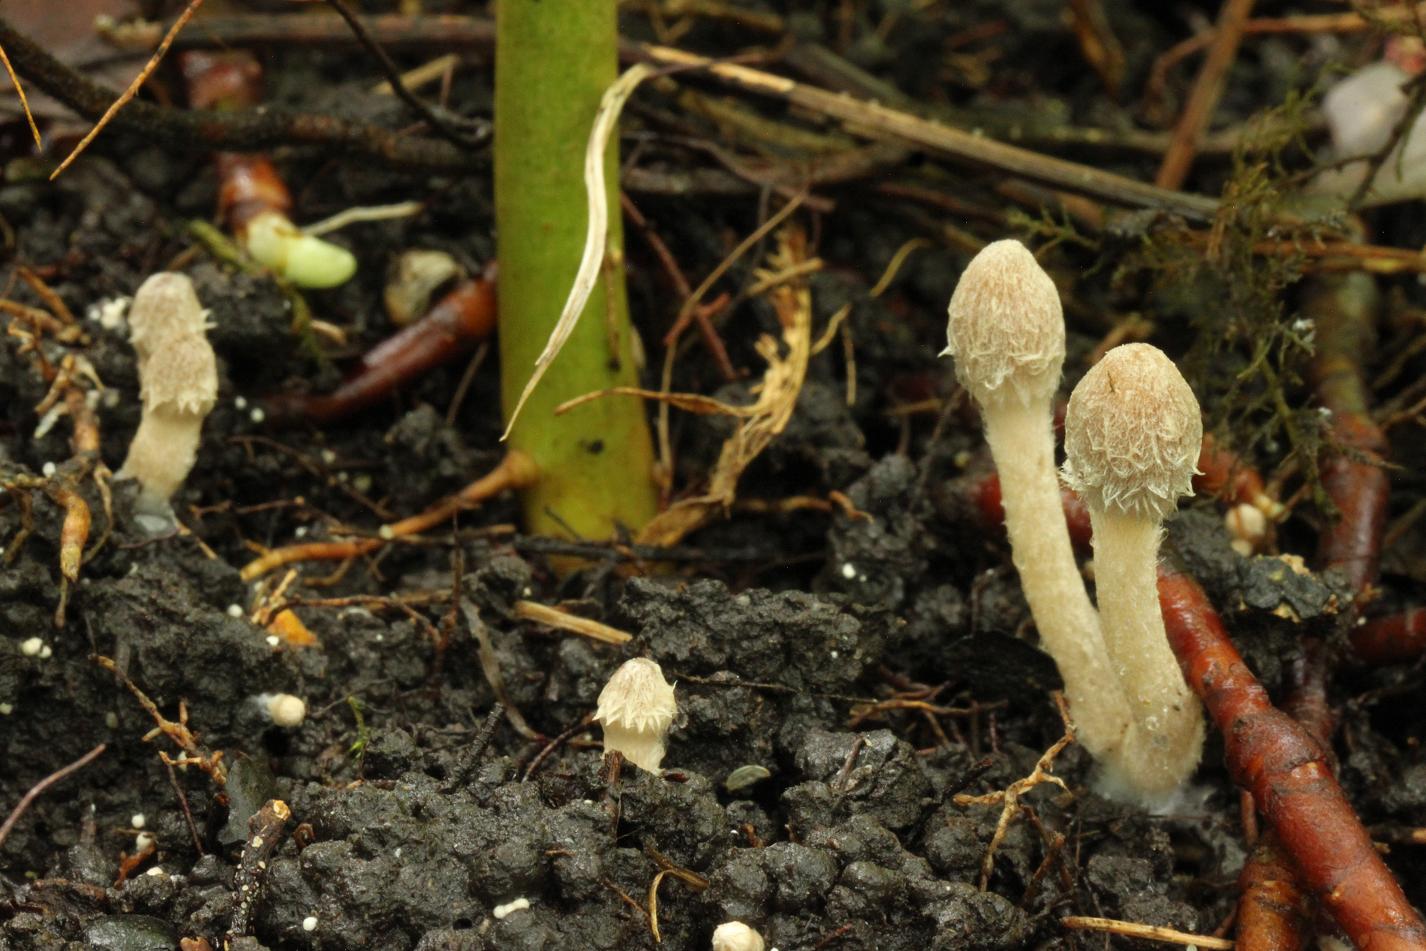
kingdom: Fungi
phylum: Basidiomycota
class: Agaricomycetes
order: Agaricales
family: Psathyrellaceae
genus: Coprinopsis
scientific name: Coprinopsis canoceps
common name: gråhåret blækhat
